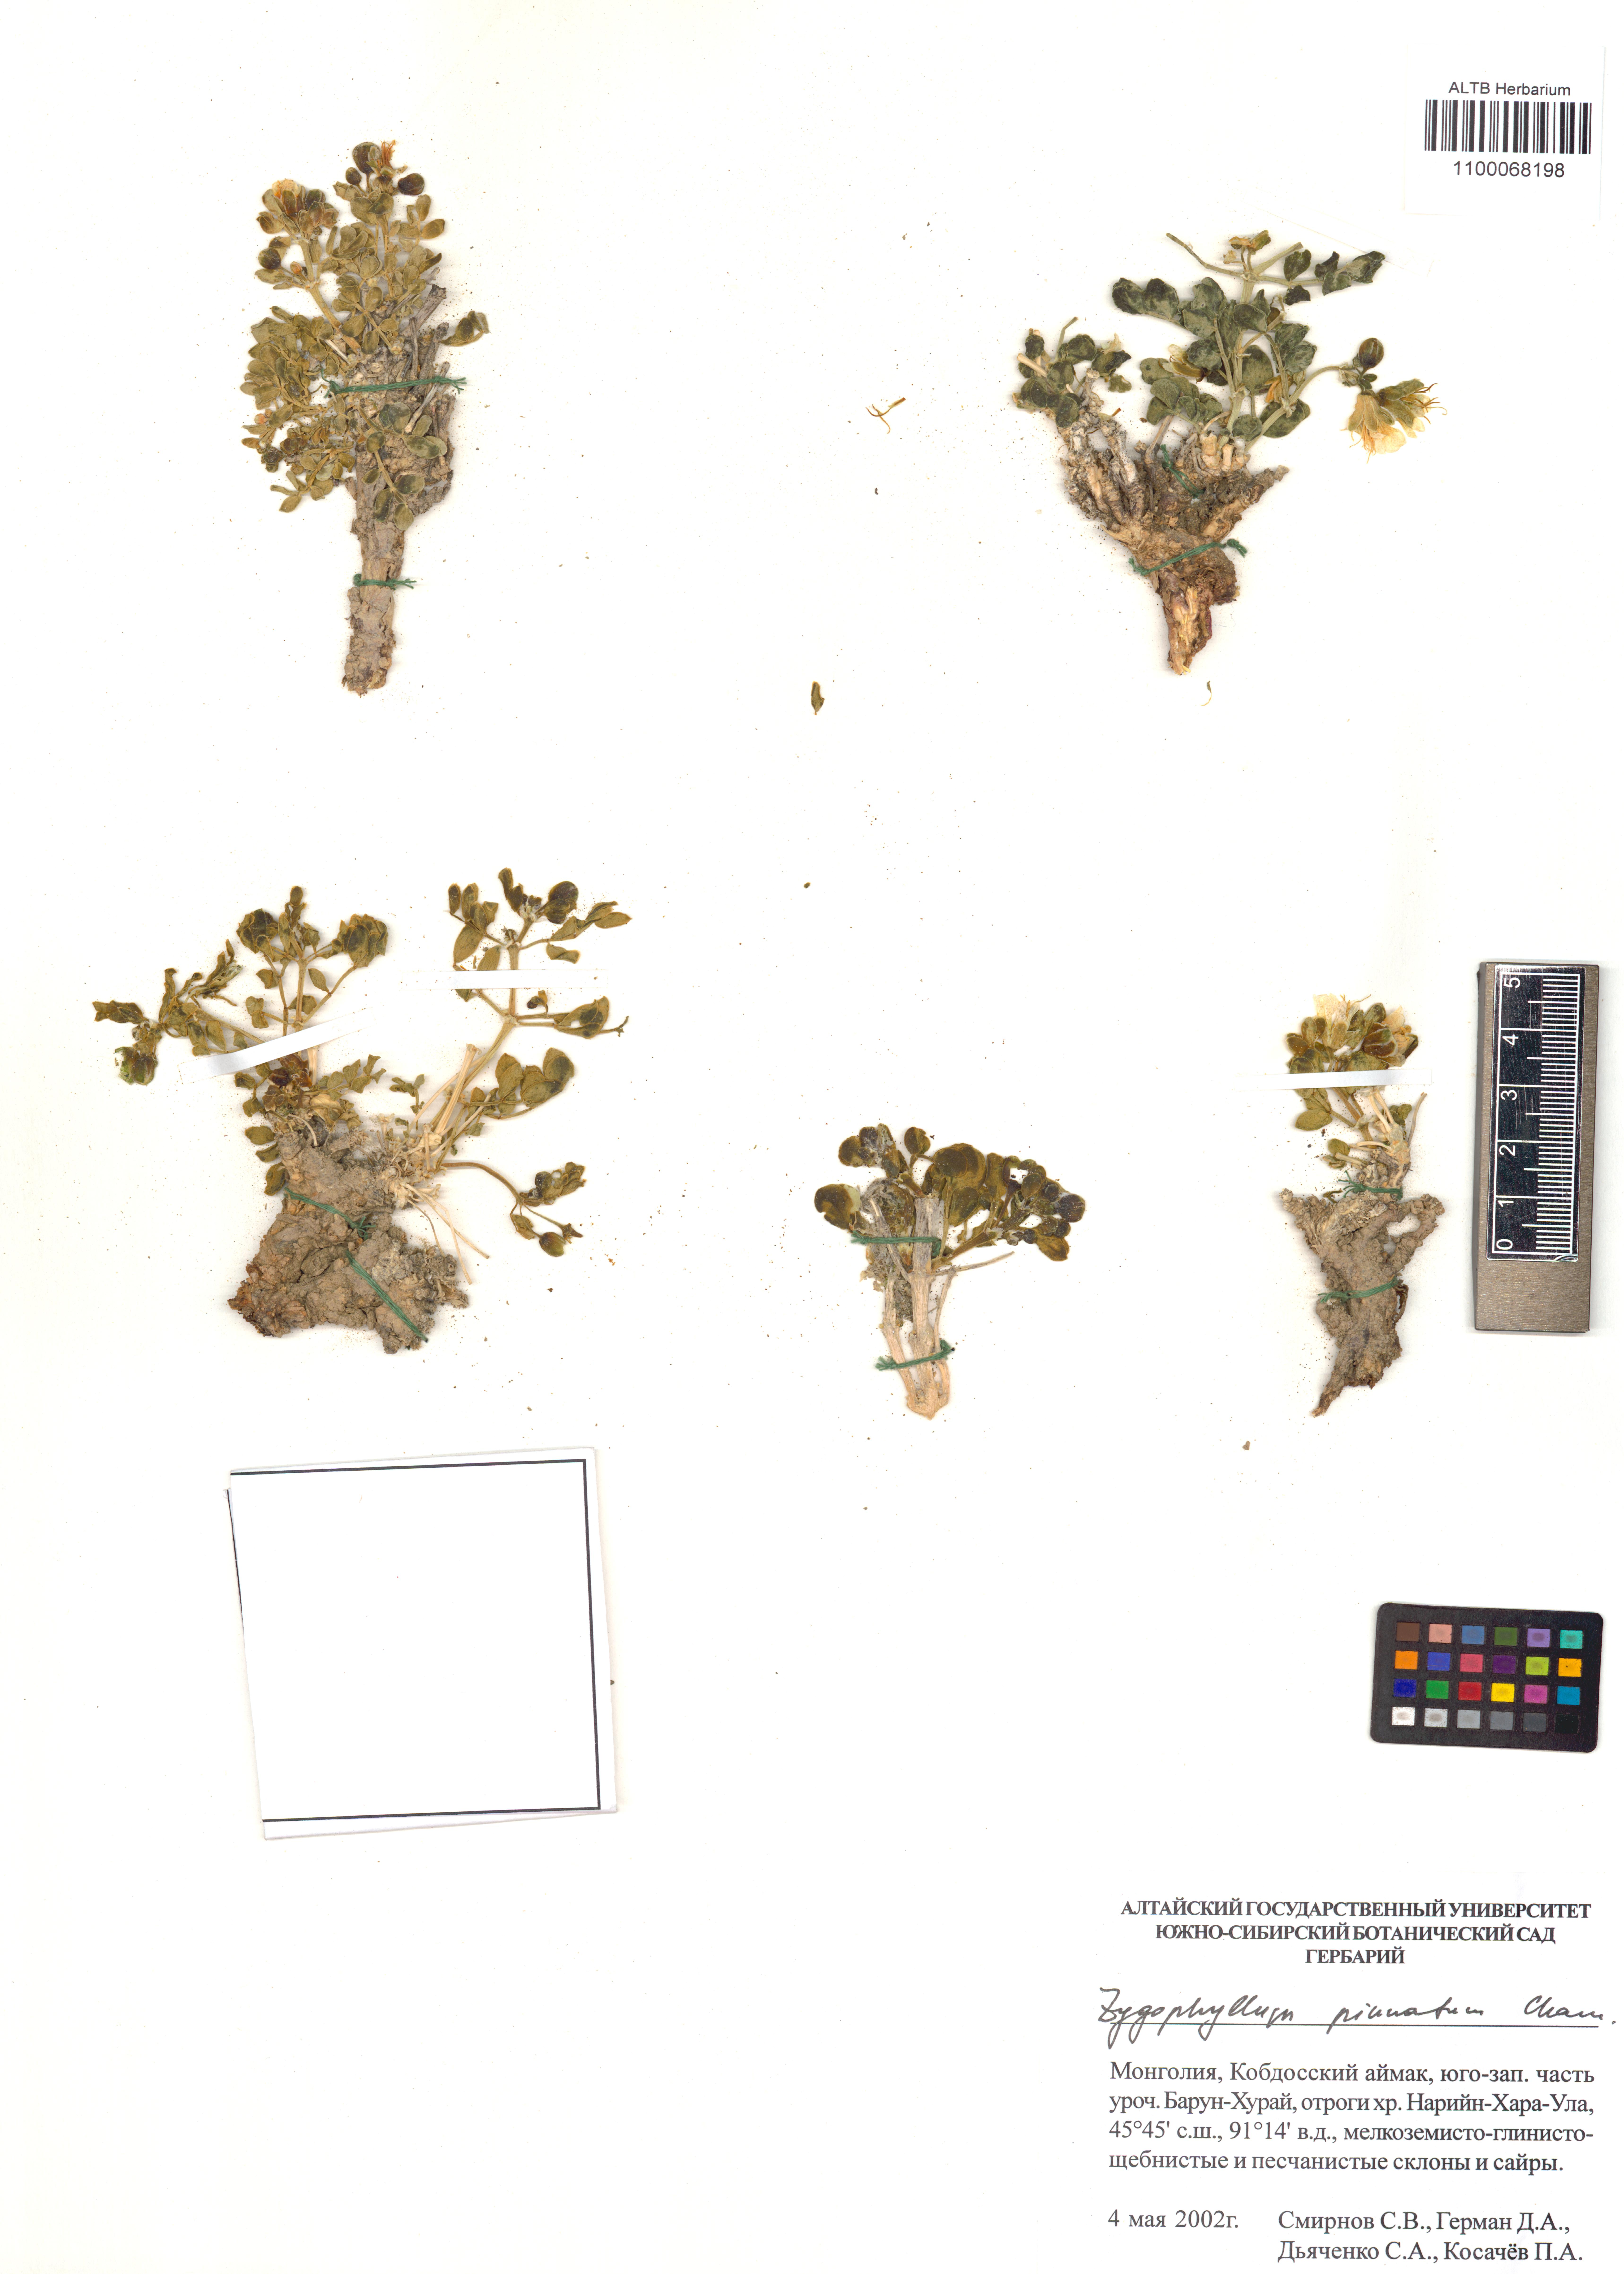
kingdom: Plantae
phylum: Tracheophyta
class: Magnoliopsida
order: Zygophyllales
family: Zygophyllaceae
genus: Zygophyllum
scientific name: Zygophyllum pinnatum
